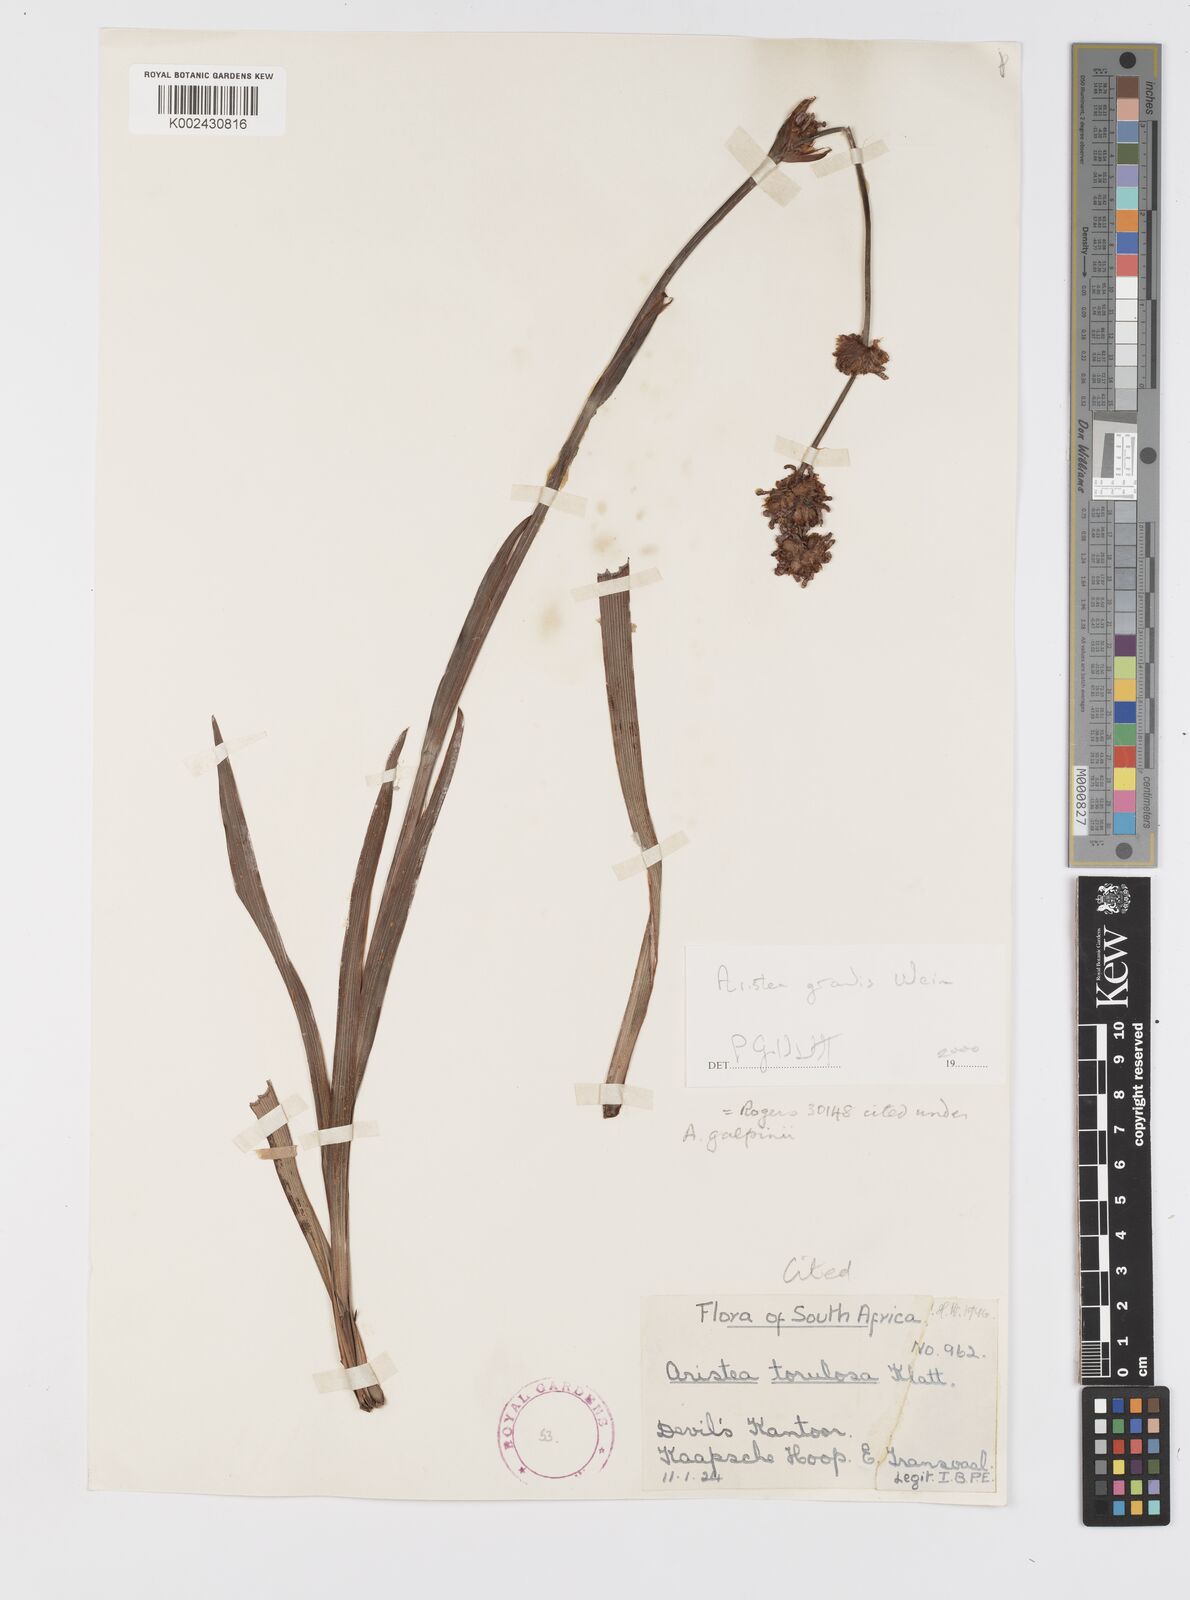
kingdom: Plantae
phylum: Tracheophyta
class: Liliopsida
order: Asparagales
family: Iridaceae
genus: Aristea
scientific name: Aristea grandis
